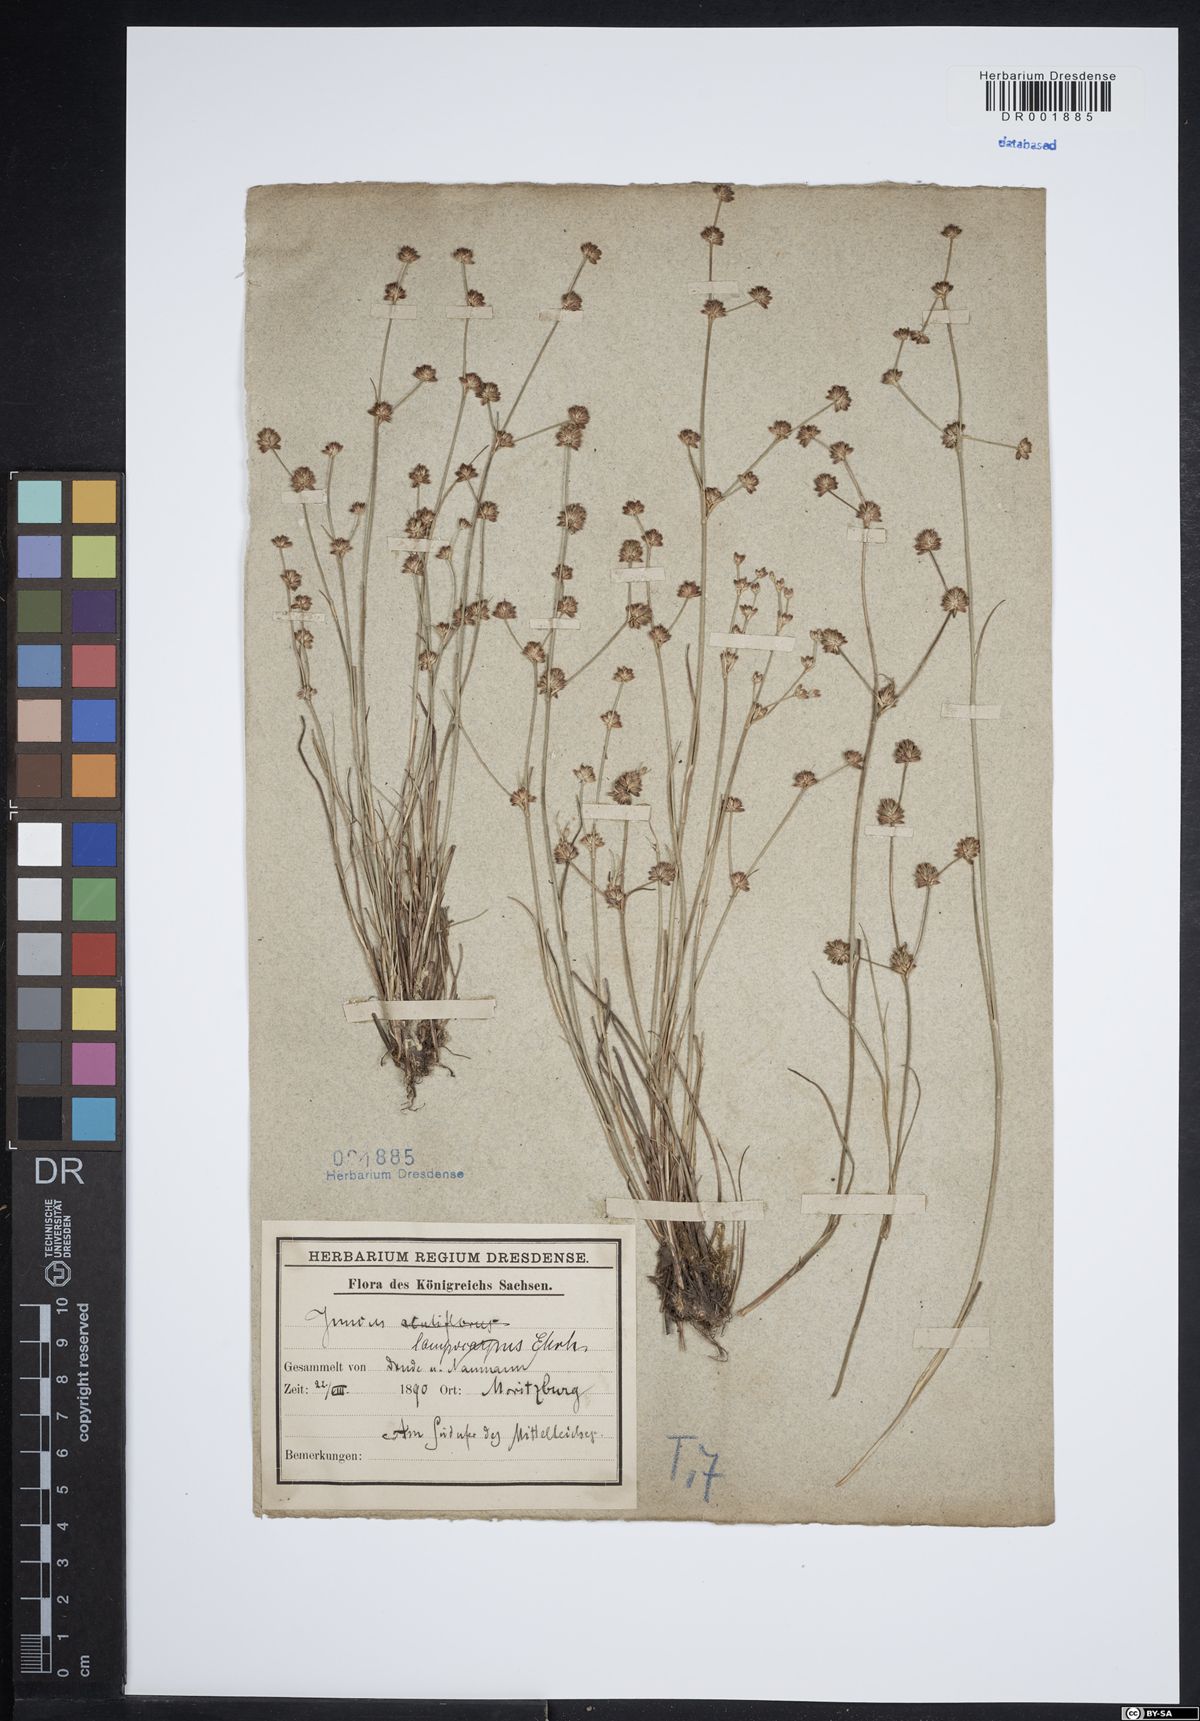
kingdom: Plantae
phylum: Tracheophyta
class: Liliopsida
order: Poales
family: Juncaceae
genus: Juncus
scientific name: Juncus articulatus
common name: Jointed rush
